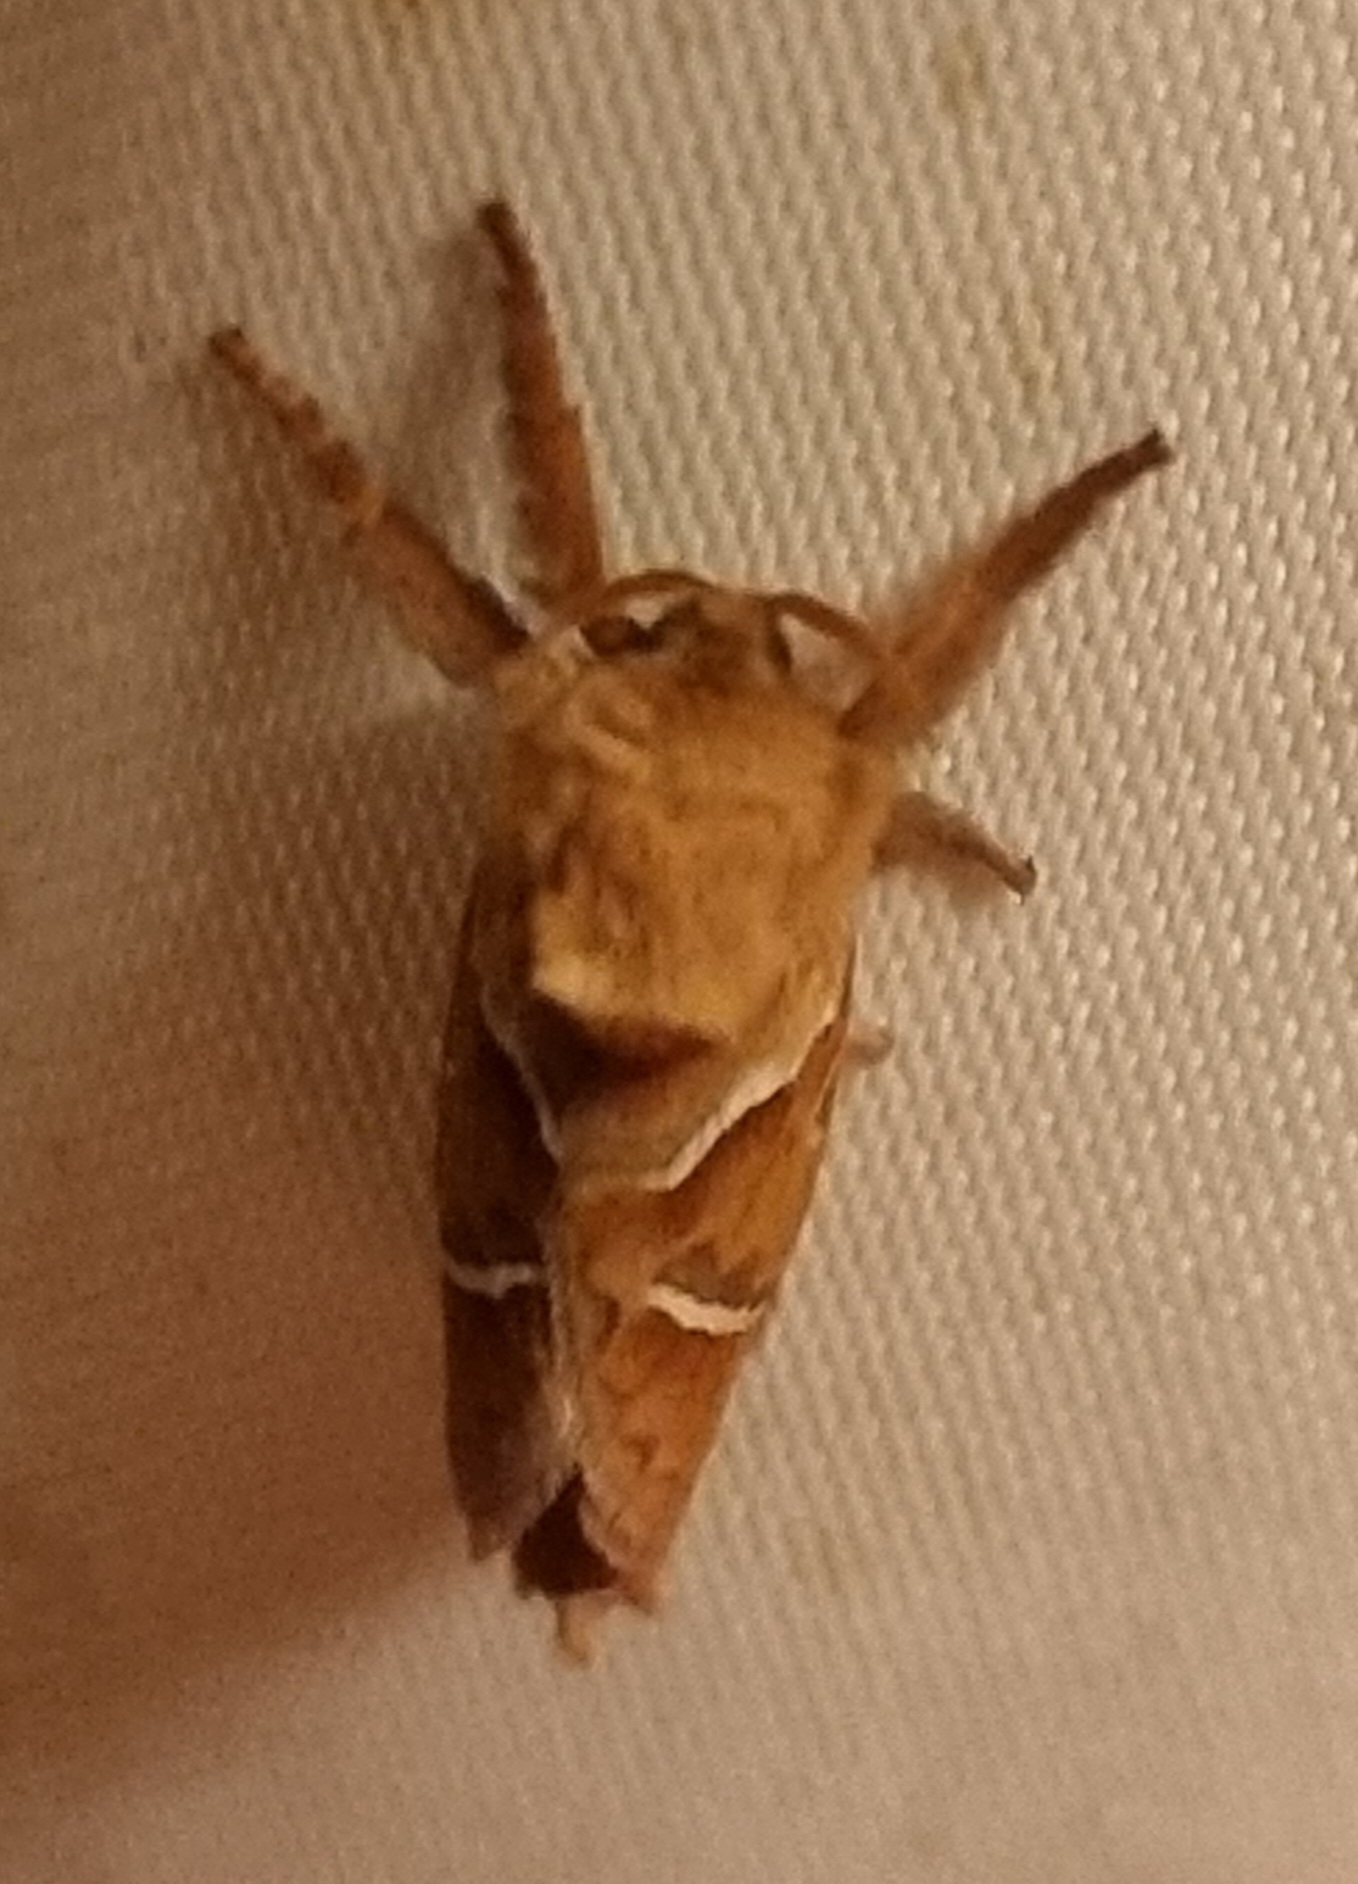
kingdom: Animalia
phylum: Arthropoda
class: Insecta
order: Lepidoptera
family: Hepialidae
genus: Triodia
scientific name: Triodia sylvina
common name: Skræpperodæder
